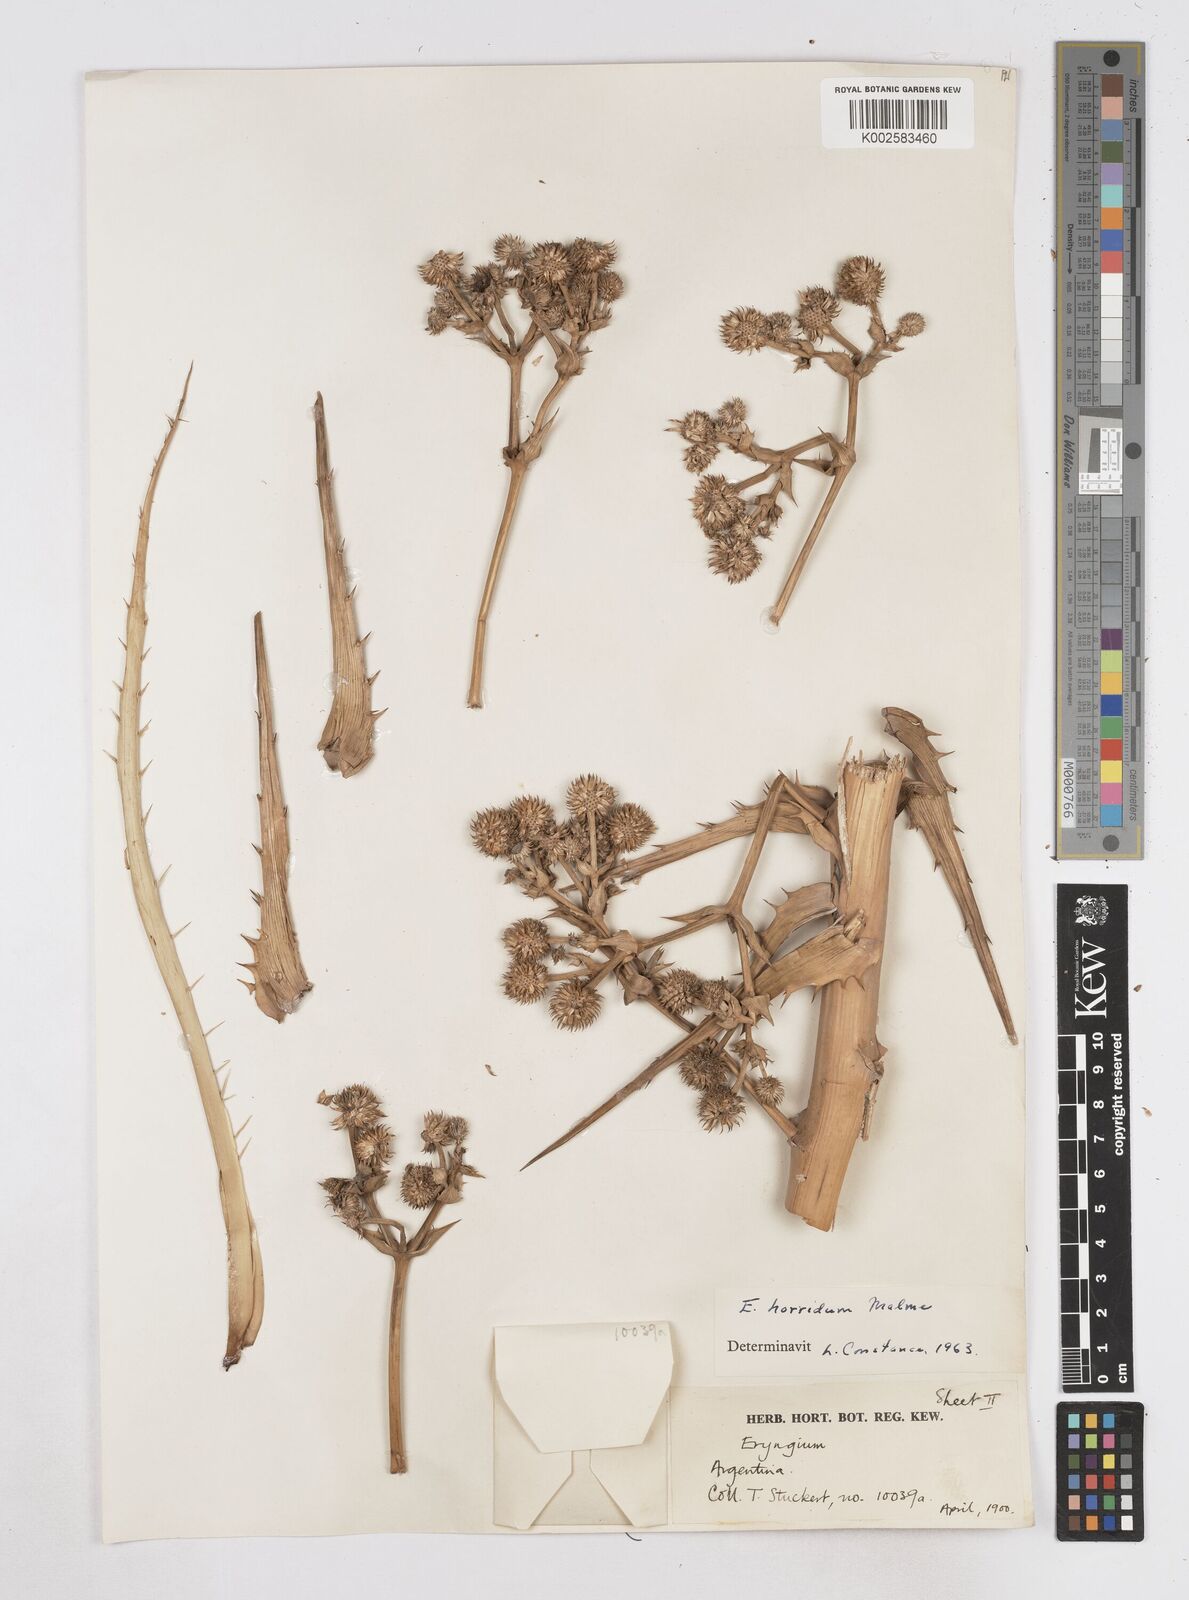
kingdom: Plantae
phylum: Tracheophyta
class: Magnoliopsida
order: Apiales
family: Apiaceae
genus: Eryngium
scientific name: Eryngium horridum
